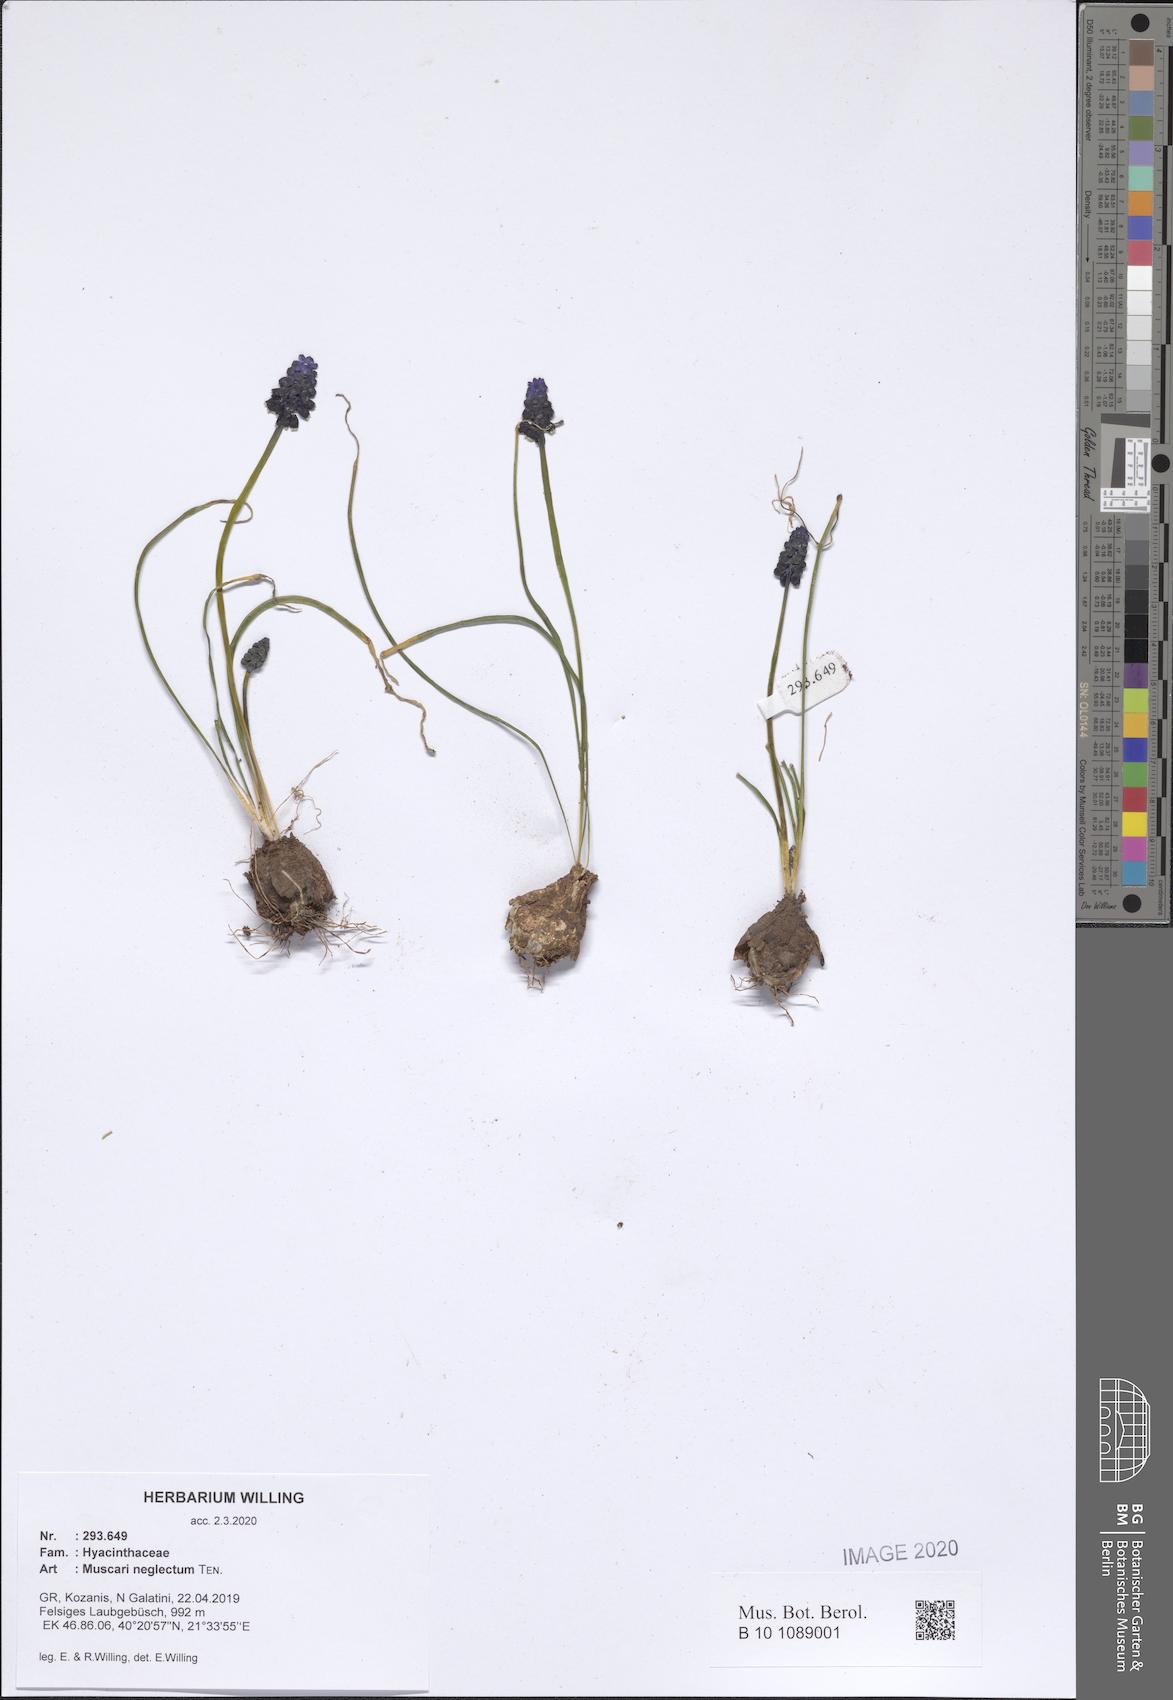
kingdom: Plantae
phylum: Tracheophyta
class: Liliopsida
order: Asparagales
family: Asparagaceae
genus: Muscari
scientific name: Muscari neglectum
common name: Grape-hyacinth
